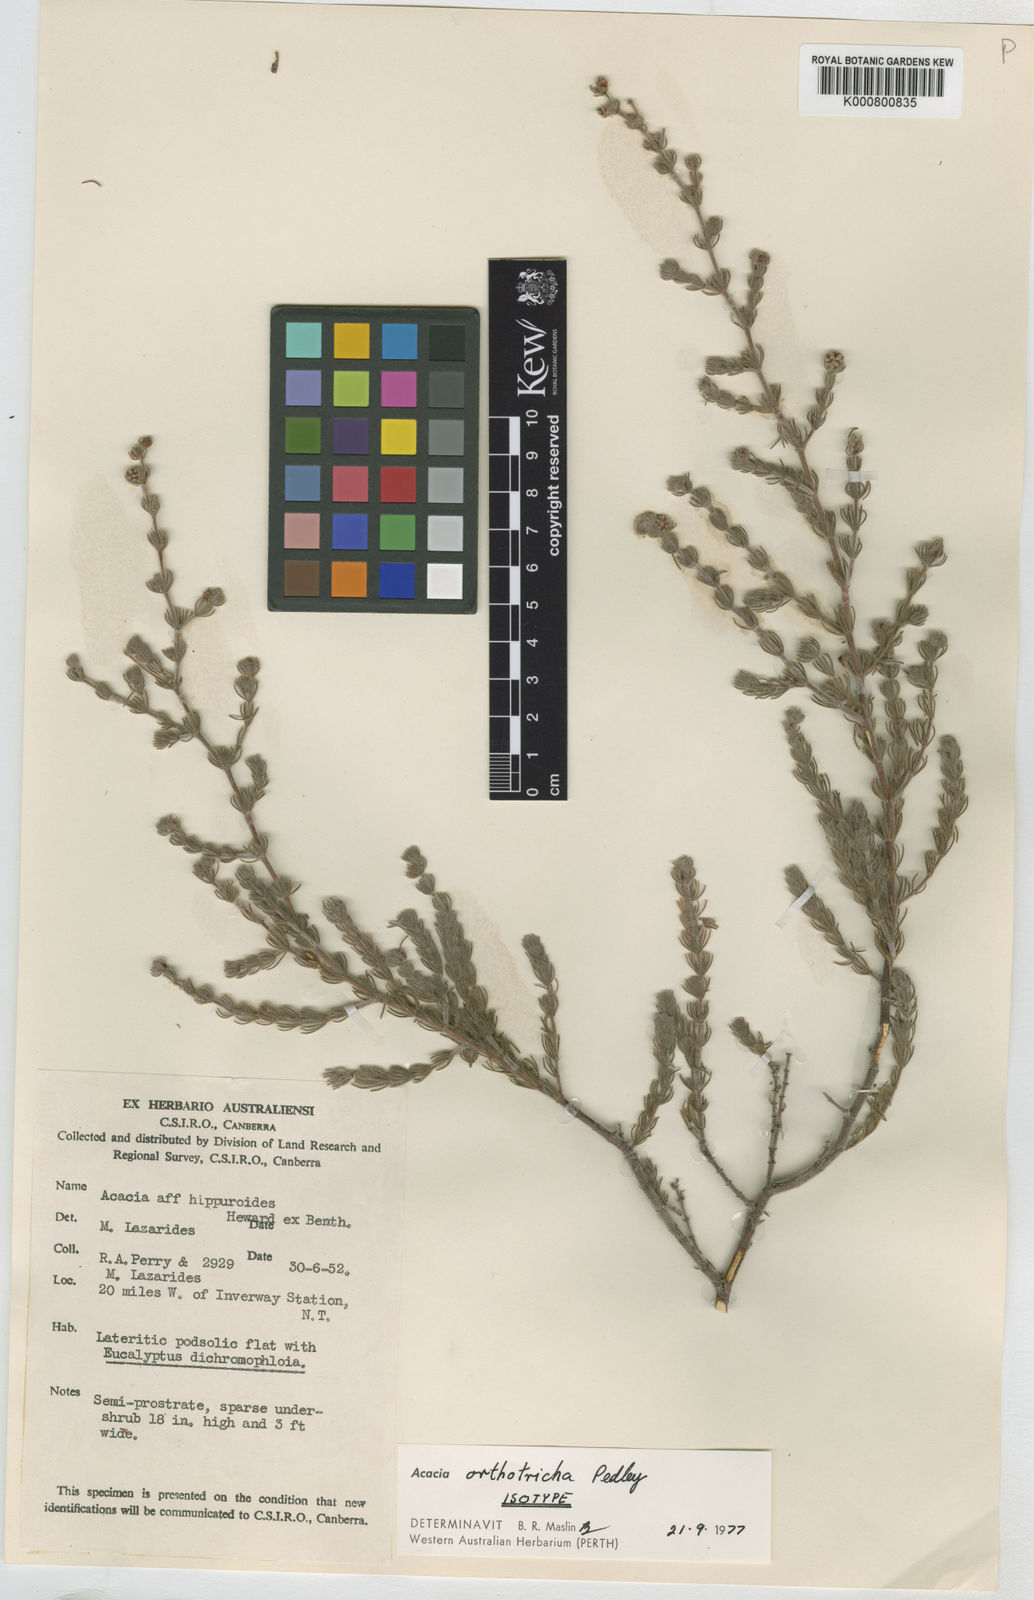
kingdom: Plantae
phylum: Tracheophyta
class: Magnoliopsida
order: Fabales
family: Fabaceae
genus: Acacia
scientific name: Acacia orthotricha
